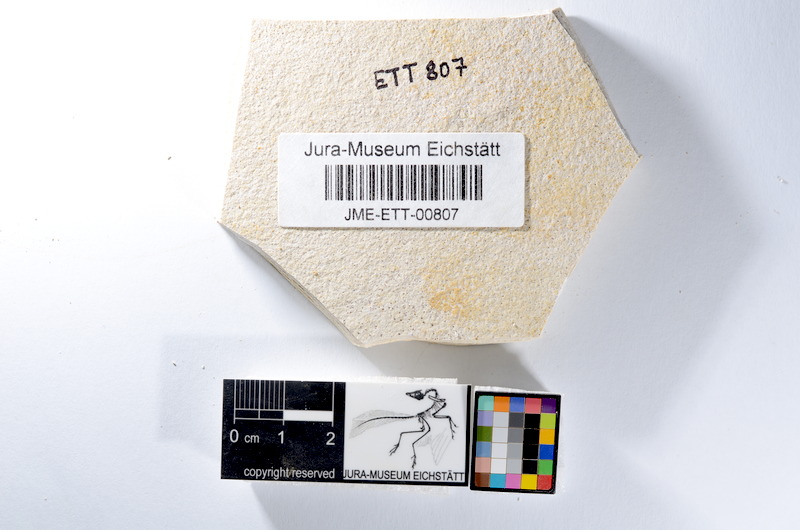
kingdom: Animalia
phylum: Chordata
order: Salmoniformes
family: Orthogonikleithridae
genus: Orthogonikleithrus
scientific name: Orthogonikleithrus hoelli
